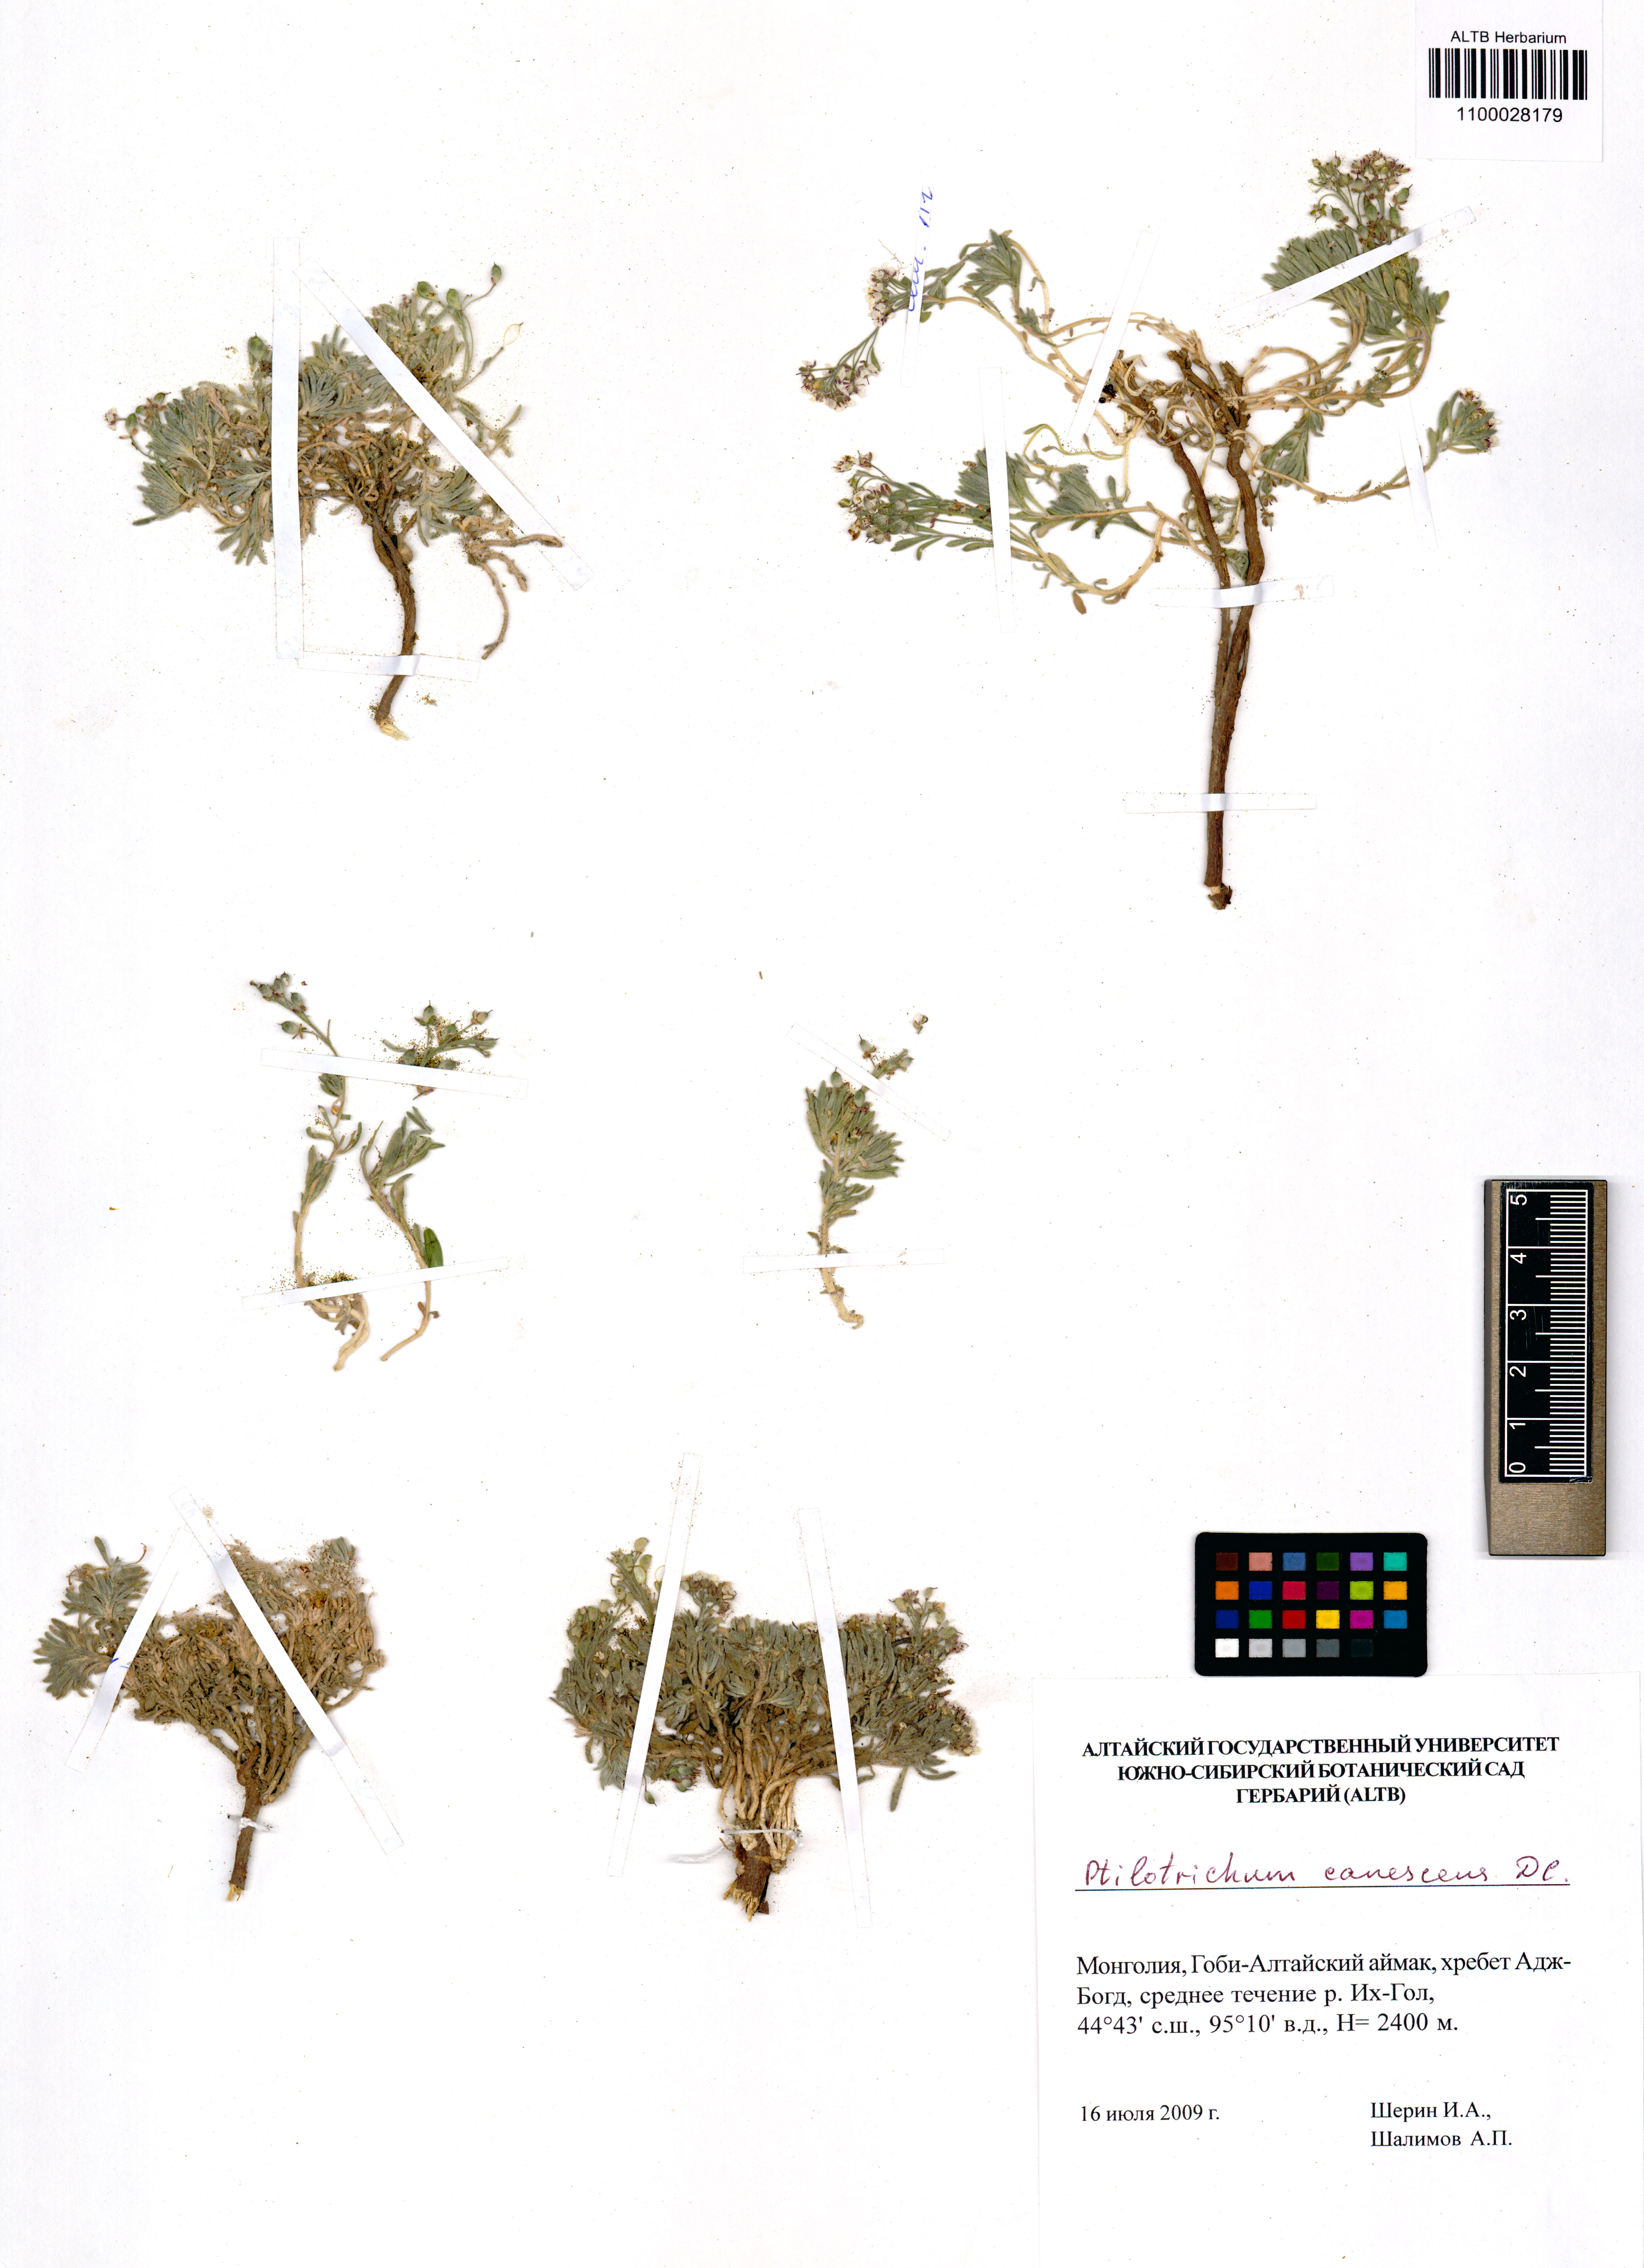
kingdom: Plantae
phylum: Tracheophyta
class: Magnoliopsida
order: Brassicales
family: Brassicaceae
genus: Stevenia
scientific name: Stevenia canescens
